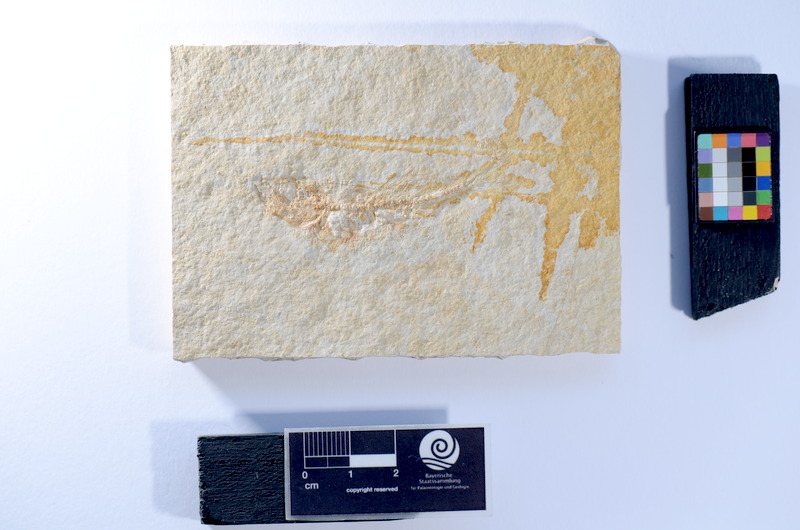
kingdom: Animalia
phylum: Chordata
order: Salmoniformes
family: Orthogonikleithridae
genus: Leptolepides
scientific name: Leptolepides sprattiformis
